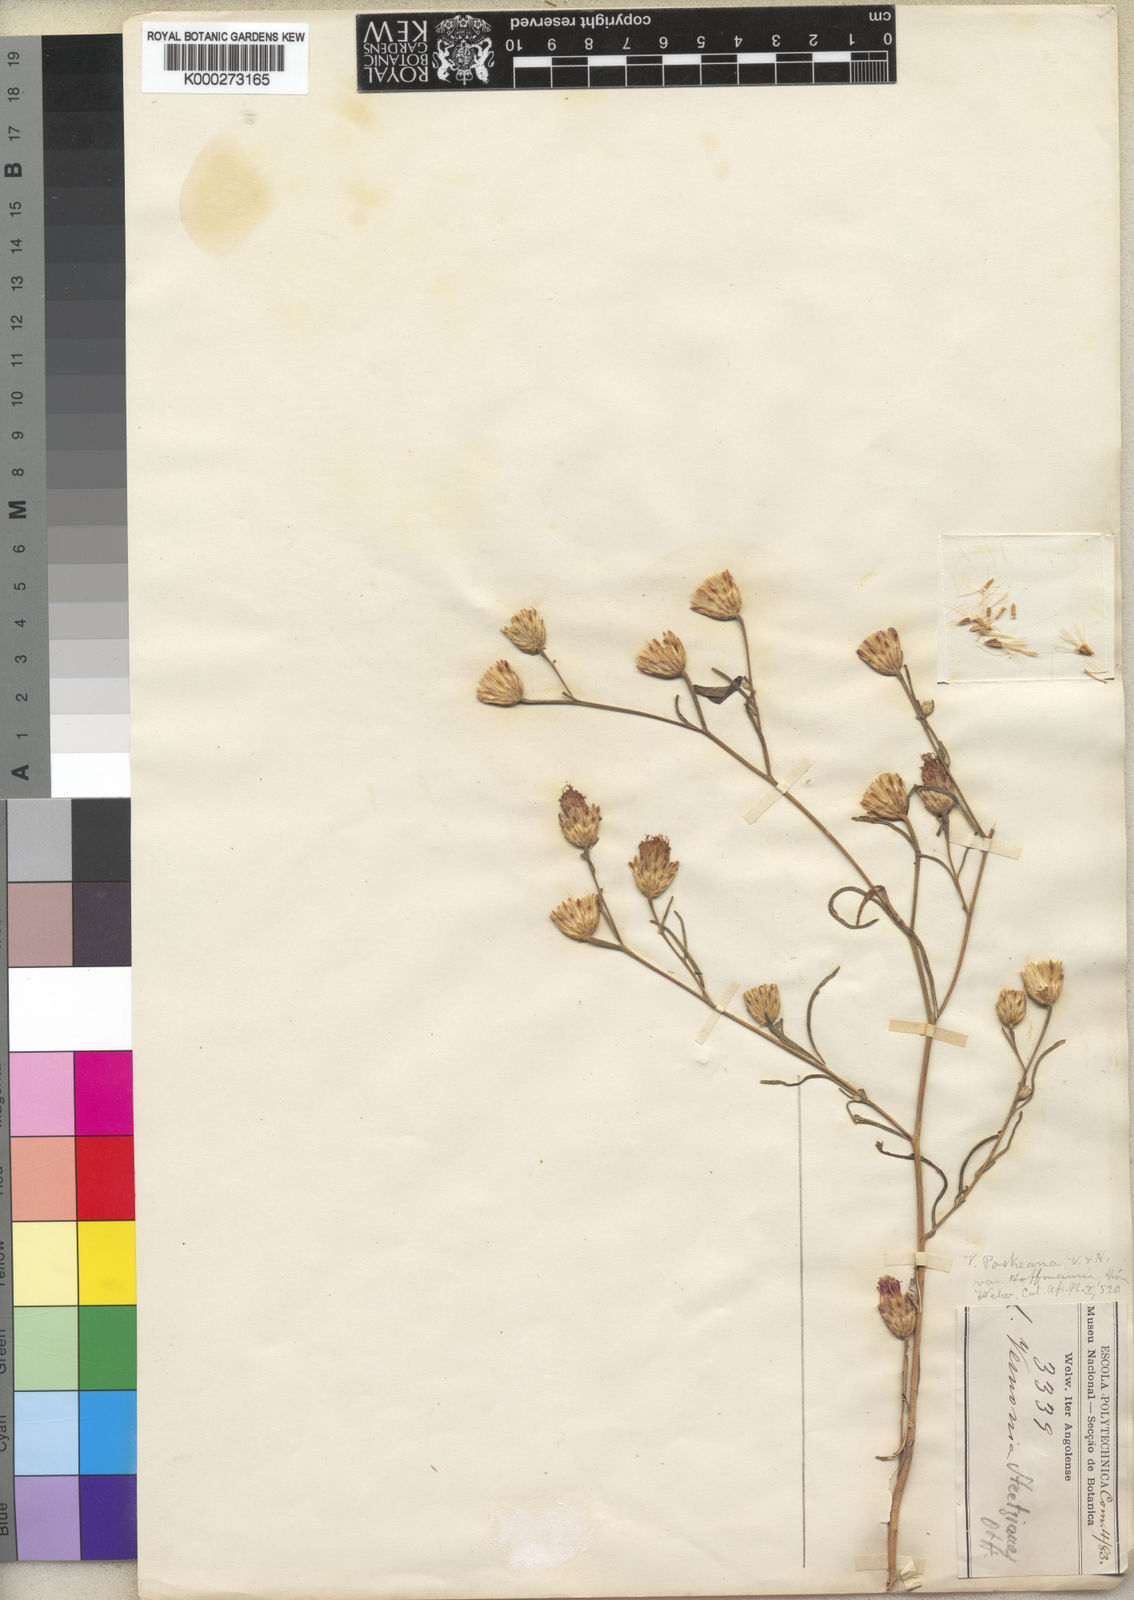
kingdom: Plantae
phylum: Tracheophyta
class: Magnoliopsida
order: Asterales
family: Asteraceae
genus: Crystallopollen
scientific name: Crystallopollen angustifolium
